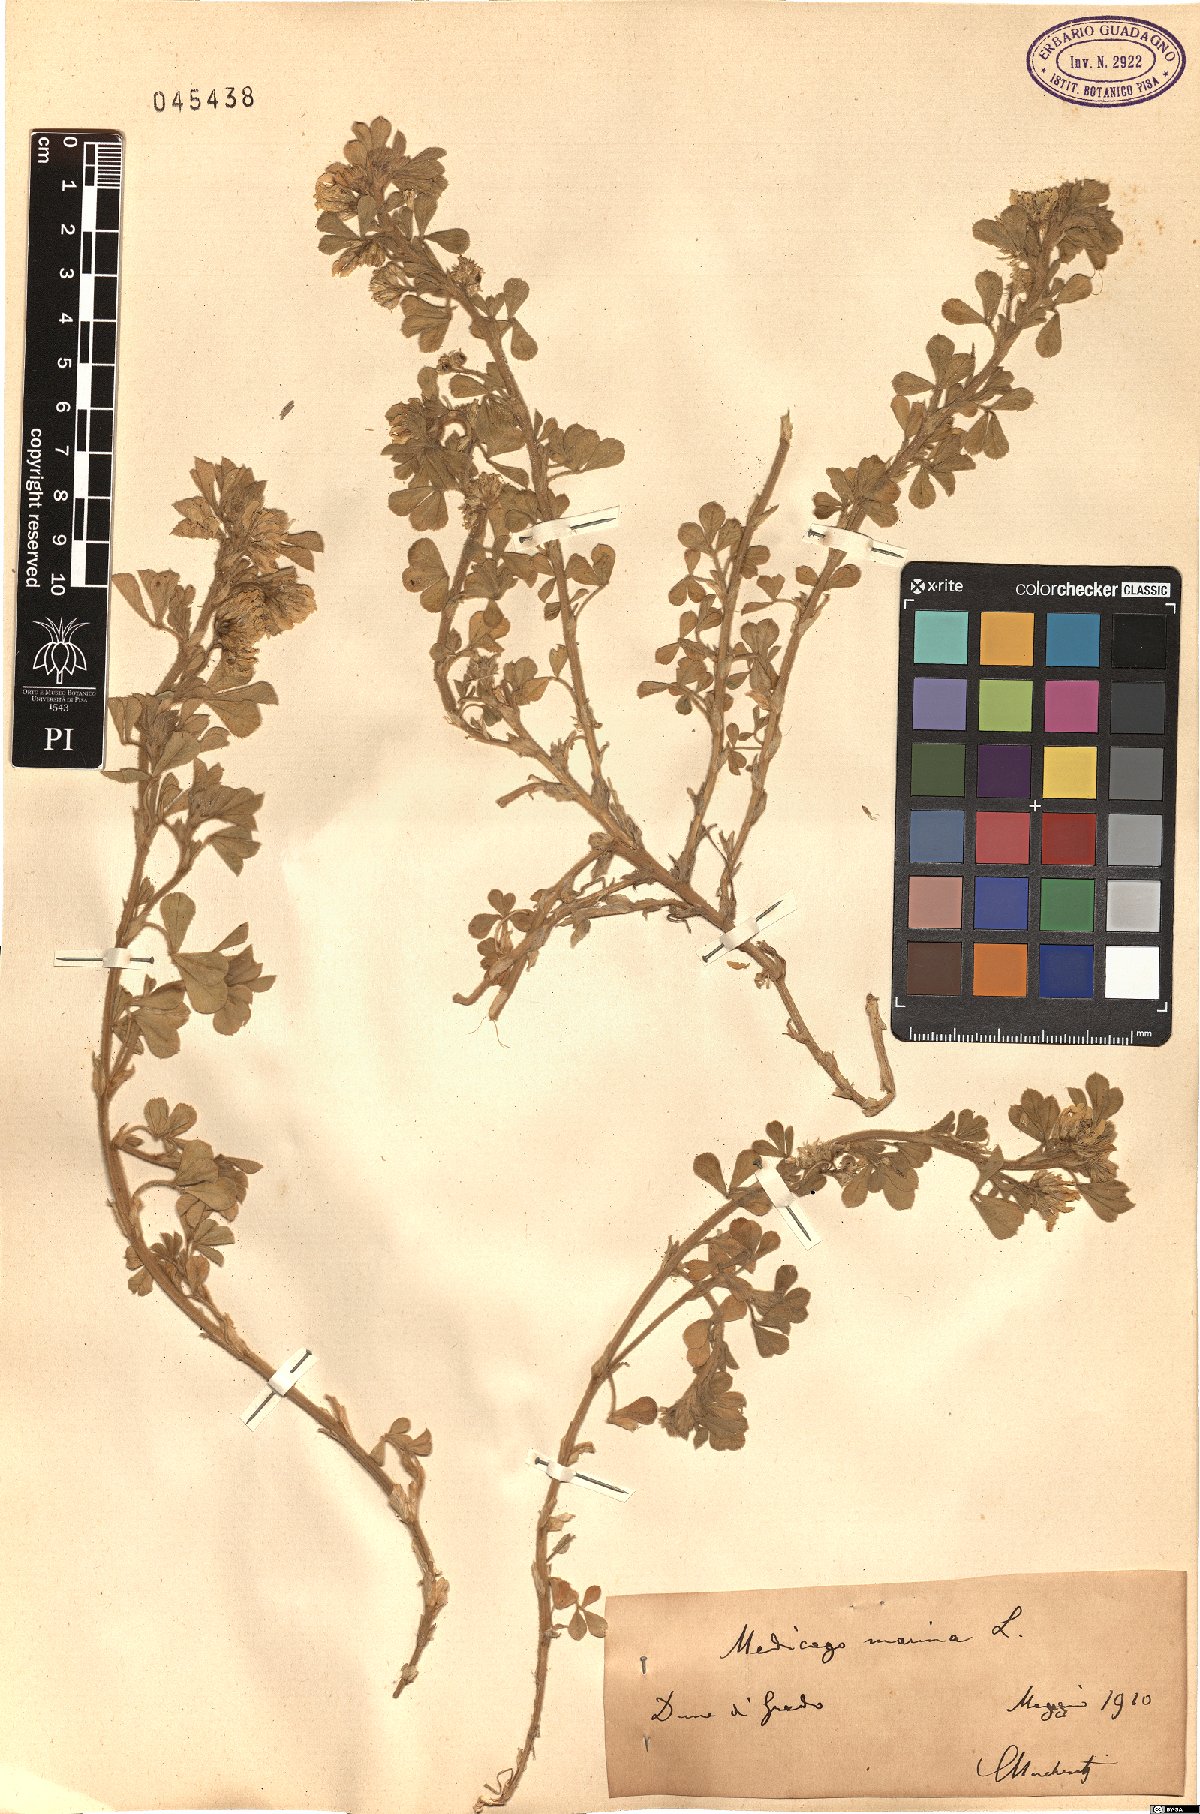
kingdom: Plantae
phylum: Tracheophyta
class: Magnoliopsida
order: Fabales
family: Fabaceae
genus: Medicago
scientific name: Medicago marina
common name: Sea medick
